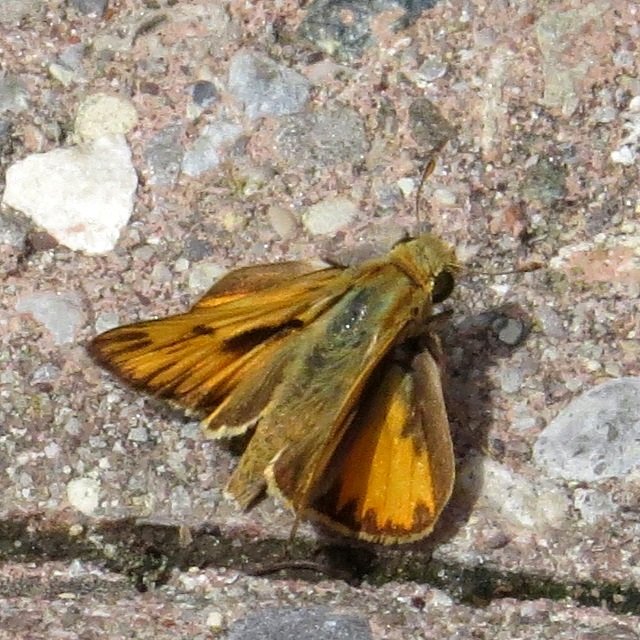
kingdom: Animalia
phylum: Arthropoda
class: Insecta
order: Lepidoptera
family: Hesperiidae
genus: Hylephila
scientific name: Hylephila phyleus
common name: Fiery Skipper
